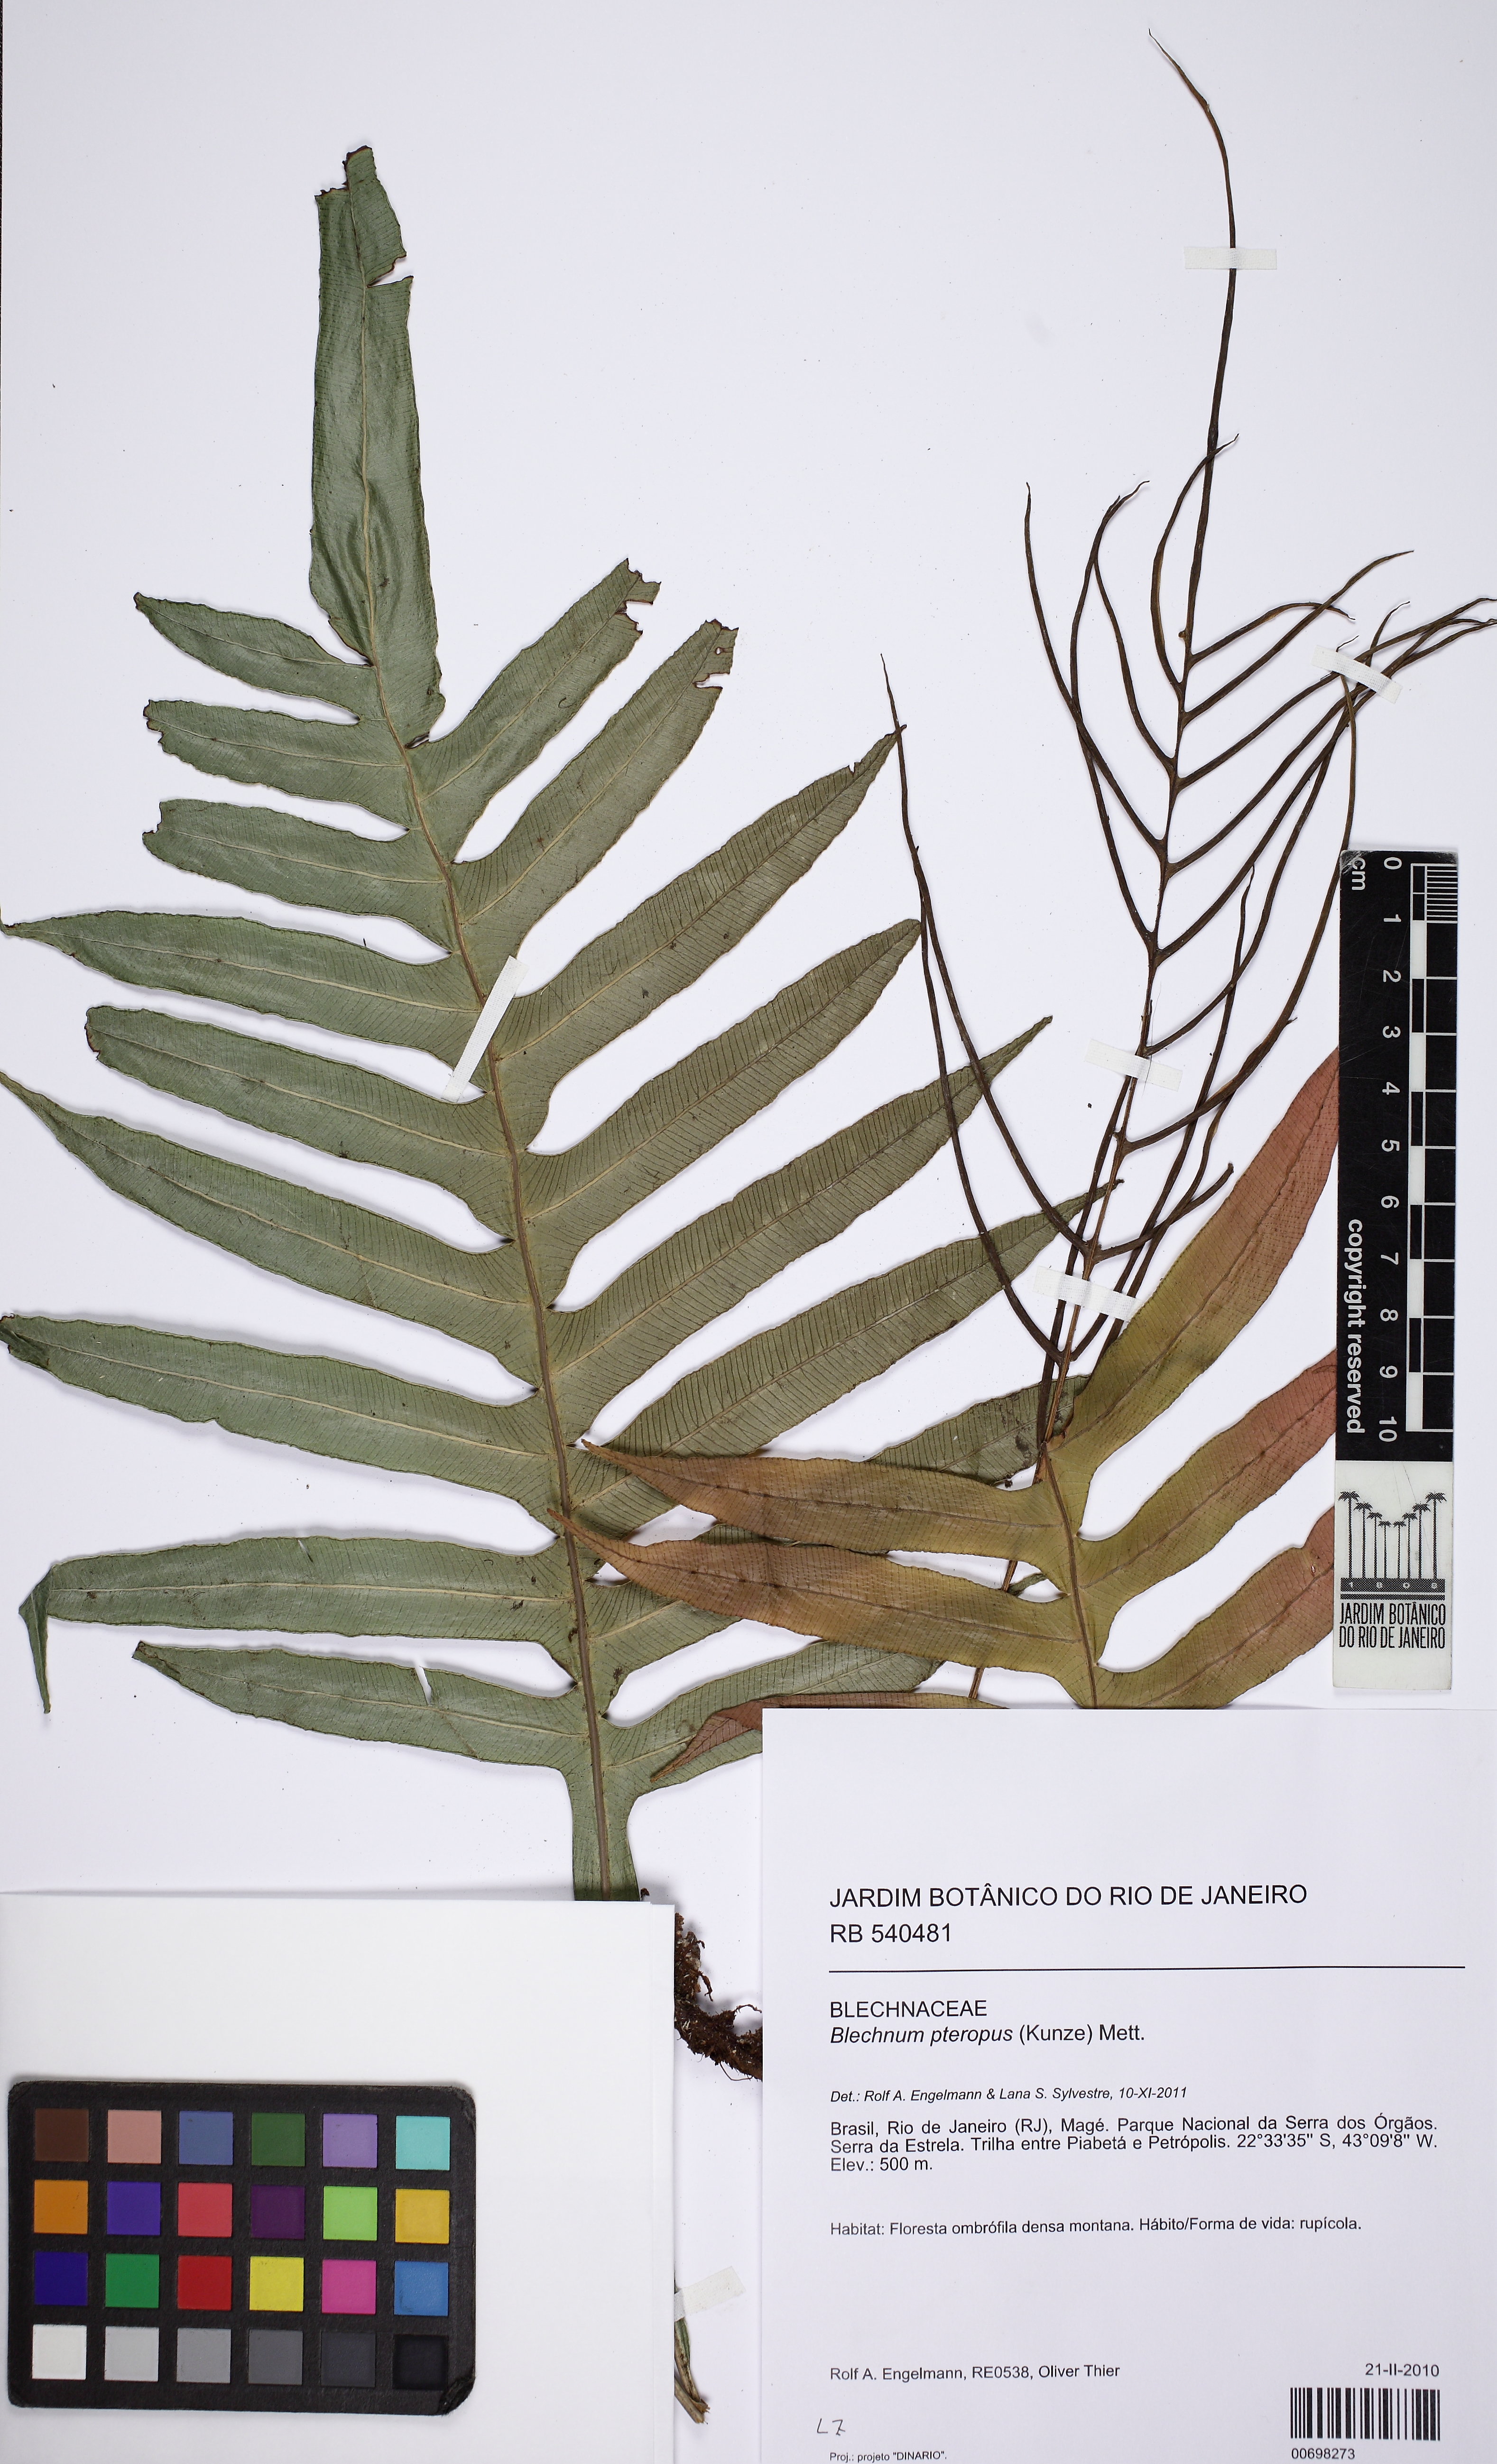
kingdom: Plantae
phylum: Tracheophyta
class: Polypodiopsida
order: Polypodiales
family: Blechnaceae
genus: Lomaridium
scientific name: Lomaridium binervatum
